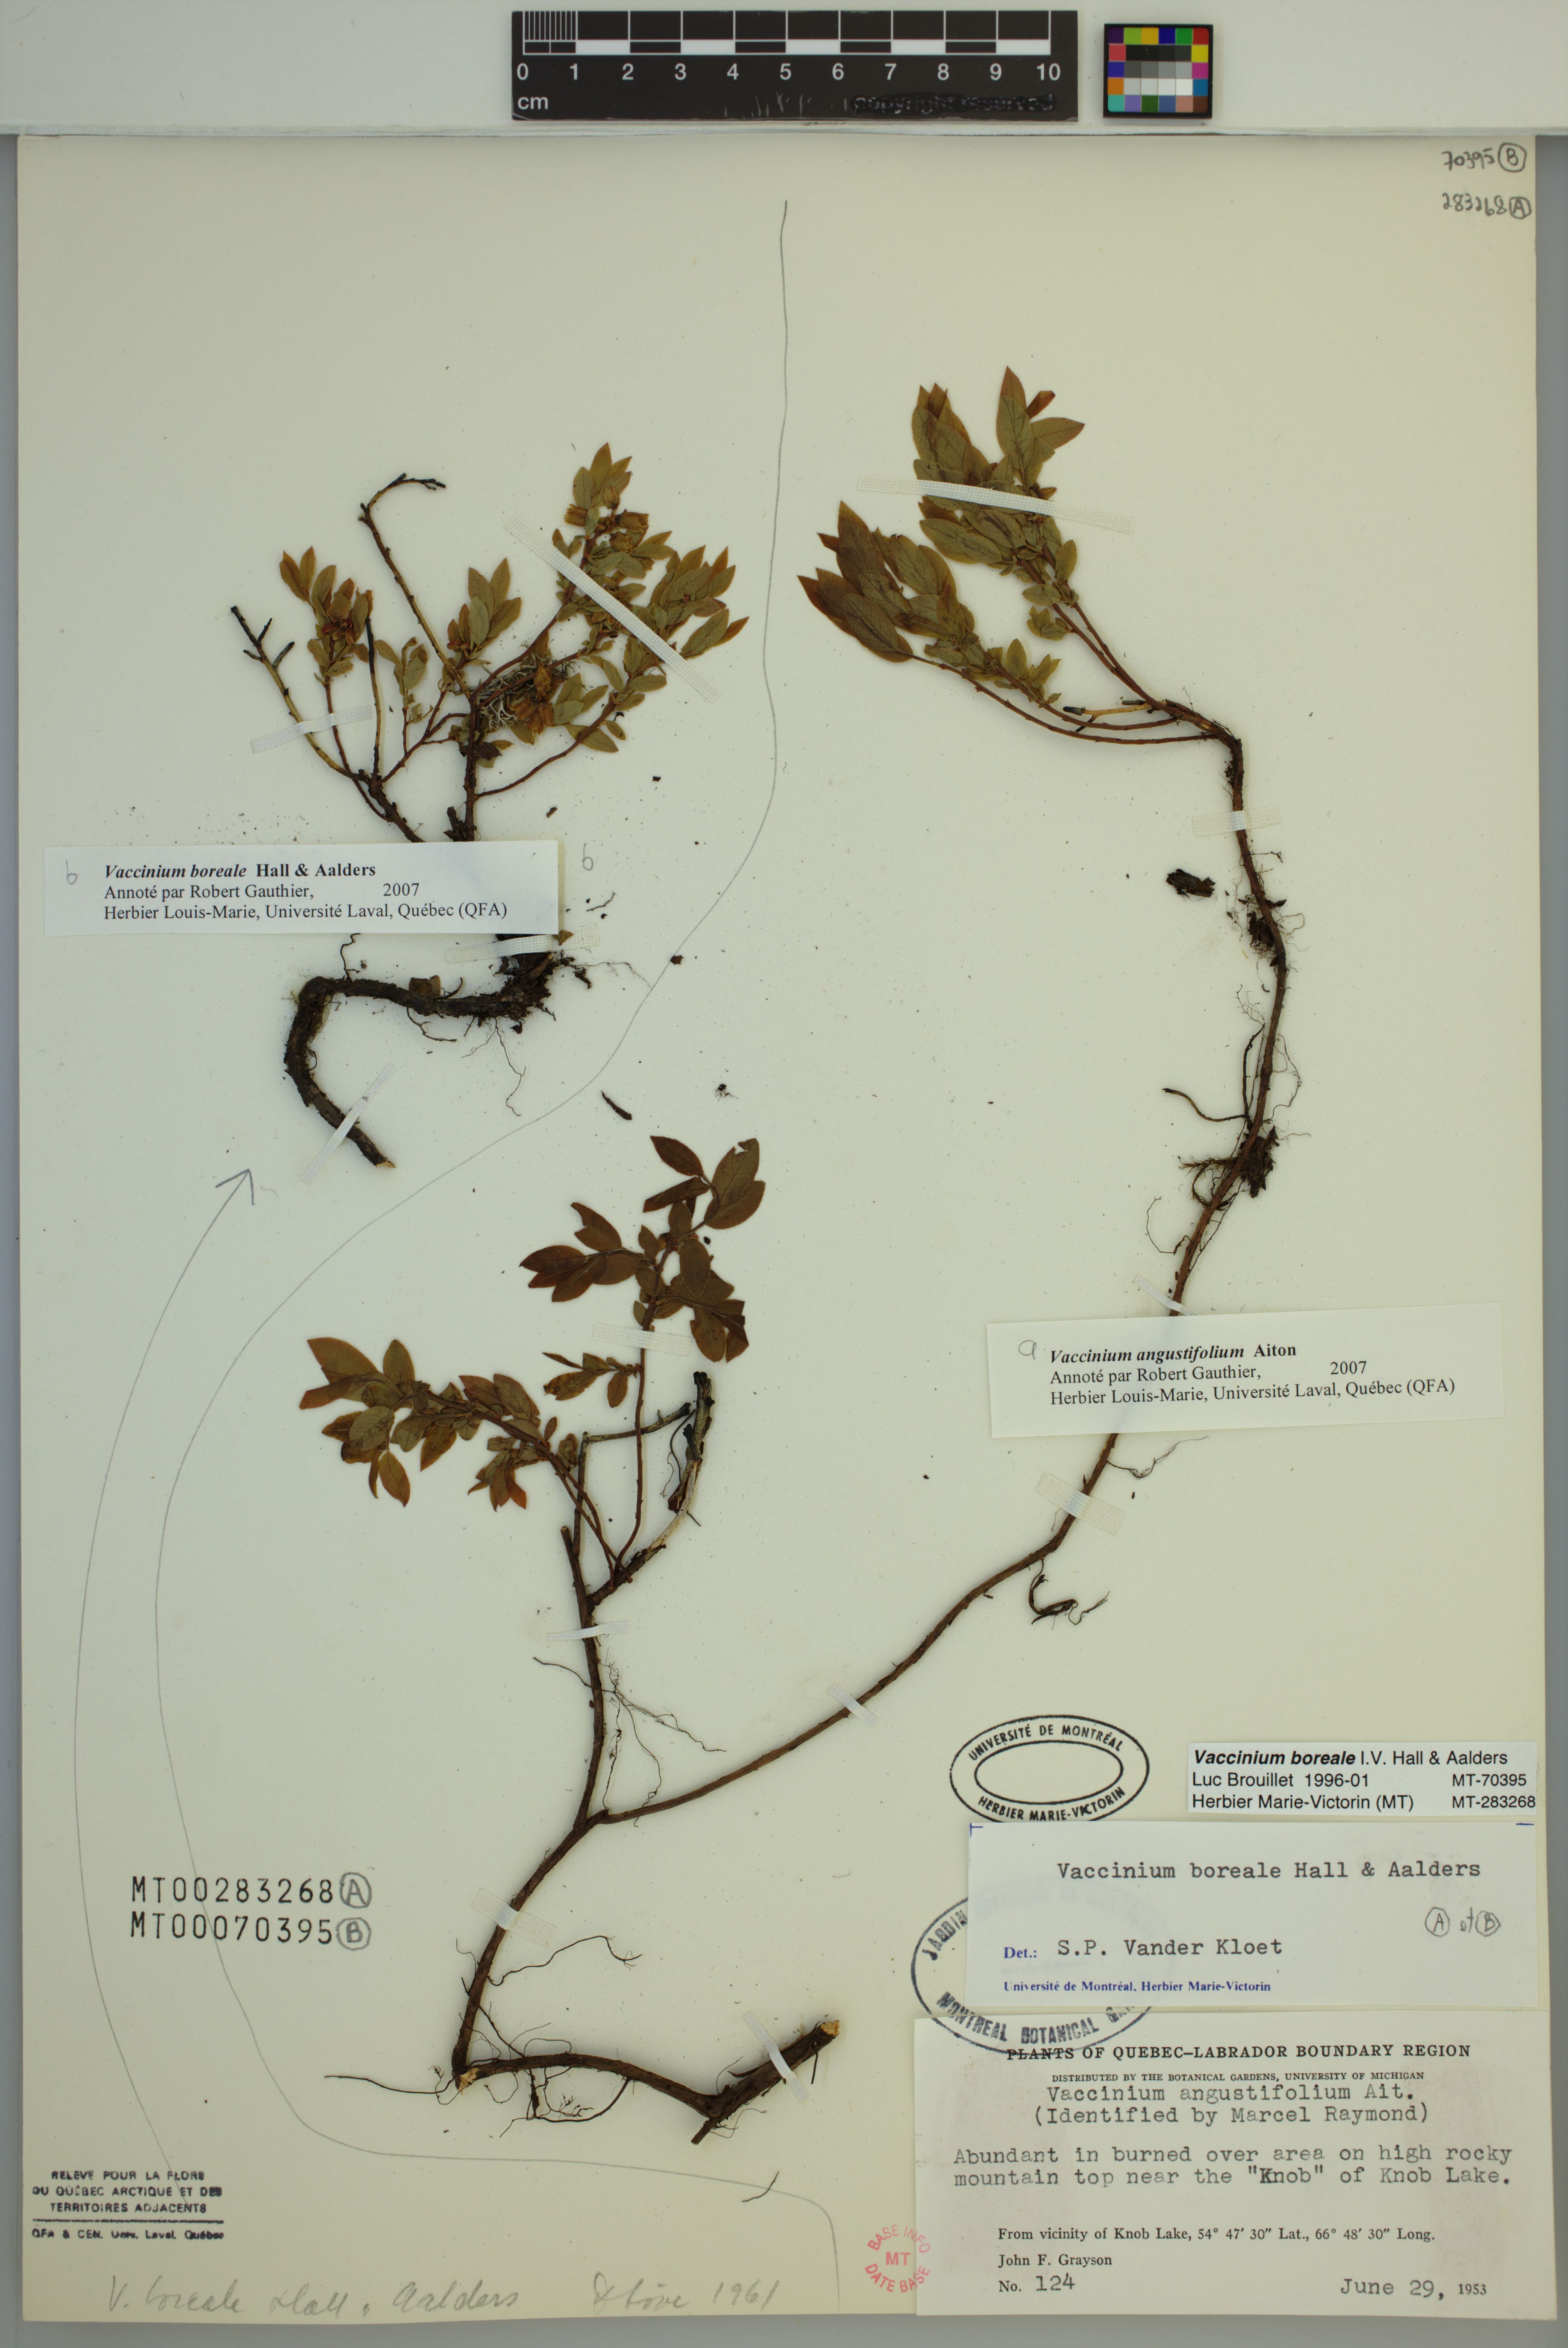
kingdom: Plantae
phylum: Tracheophyta
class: Magnoliopsida
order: Ericales
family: Ericaceae
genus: Vaccinium
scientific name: Vaccinium angustifolium
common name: Early lowbush blueberry
